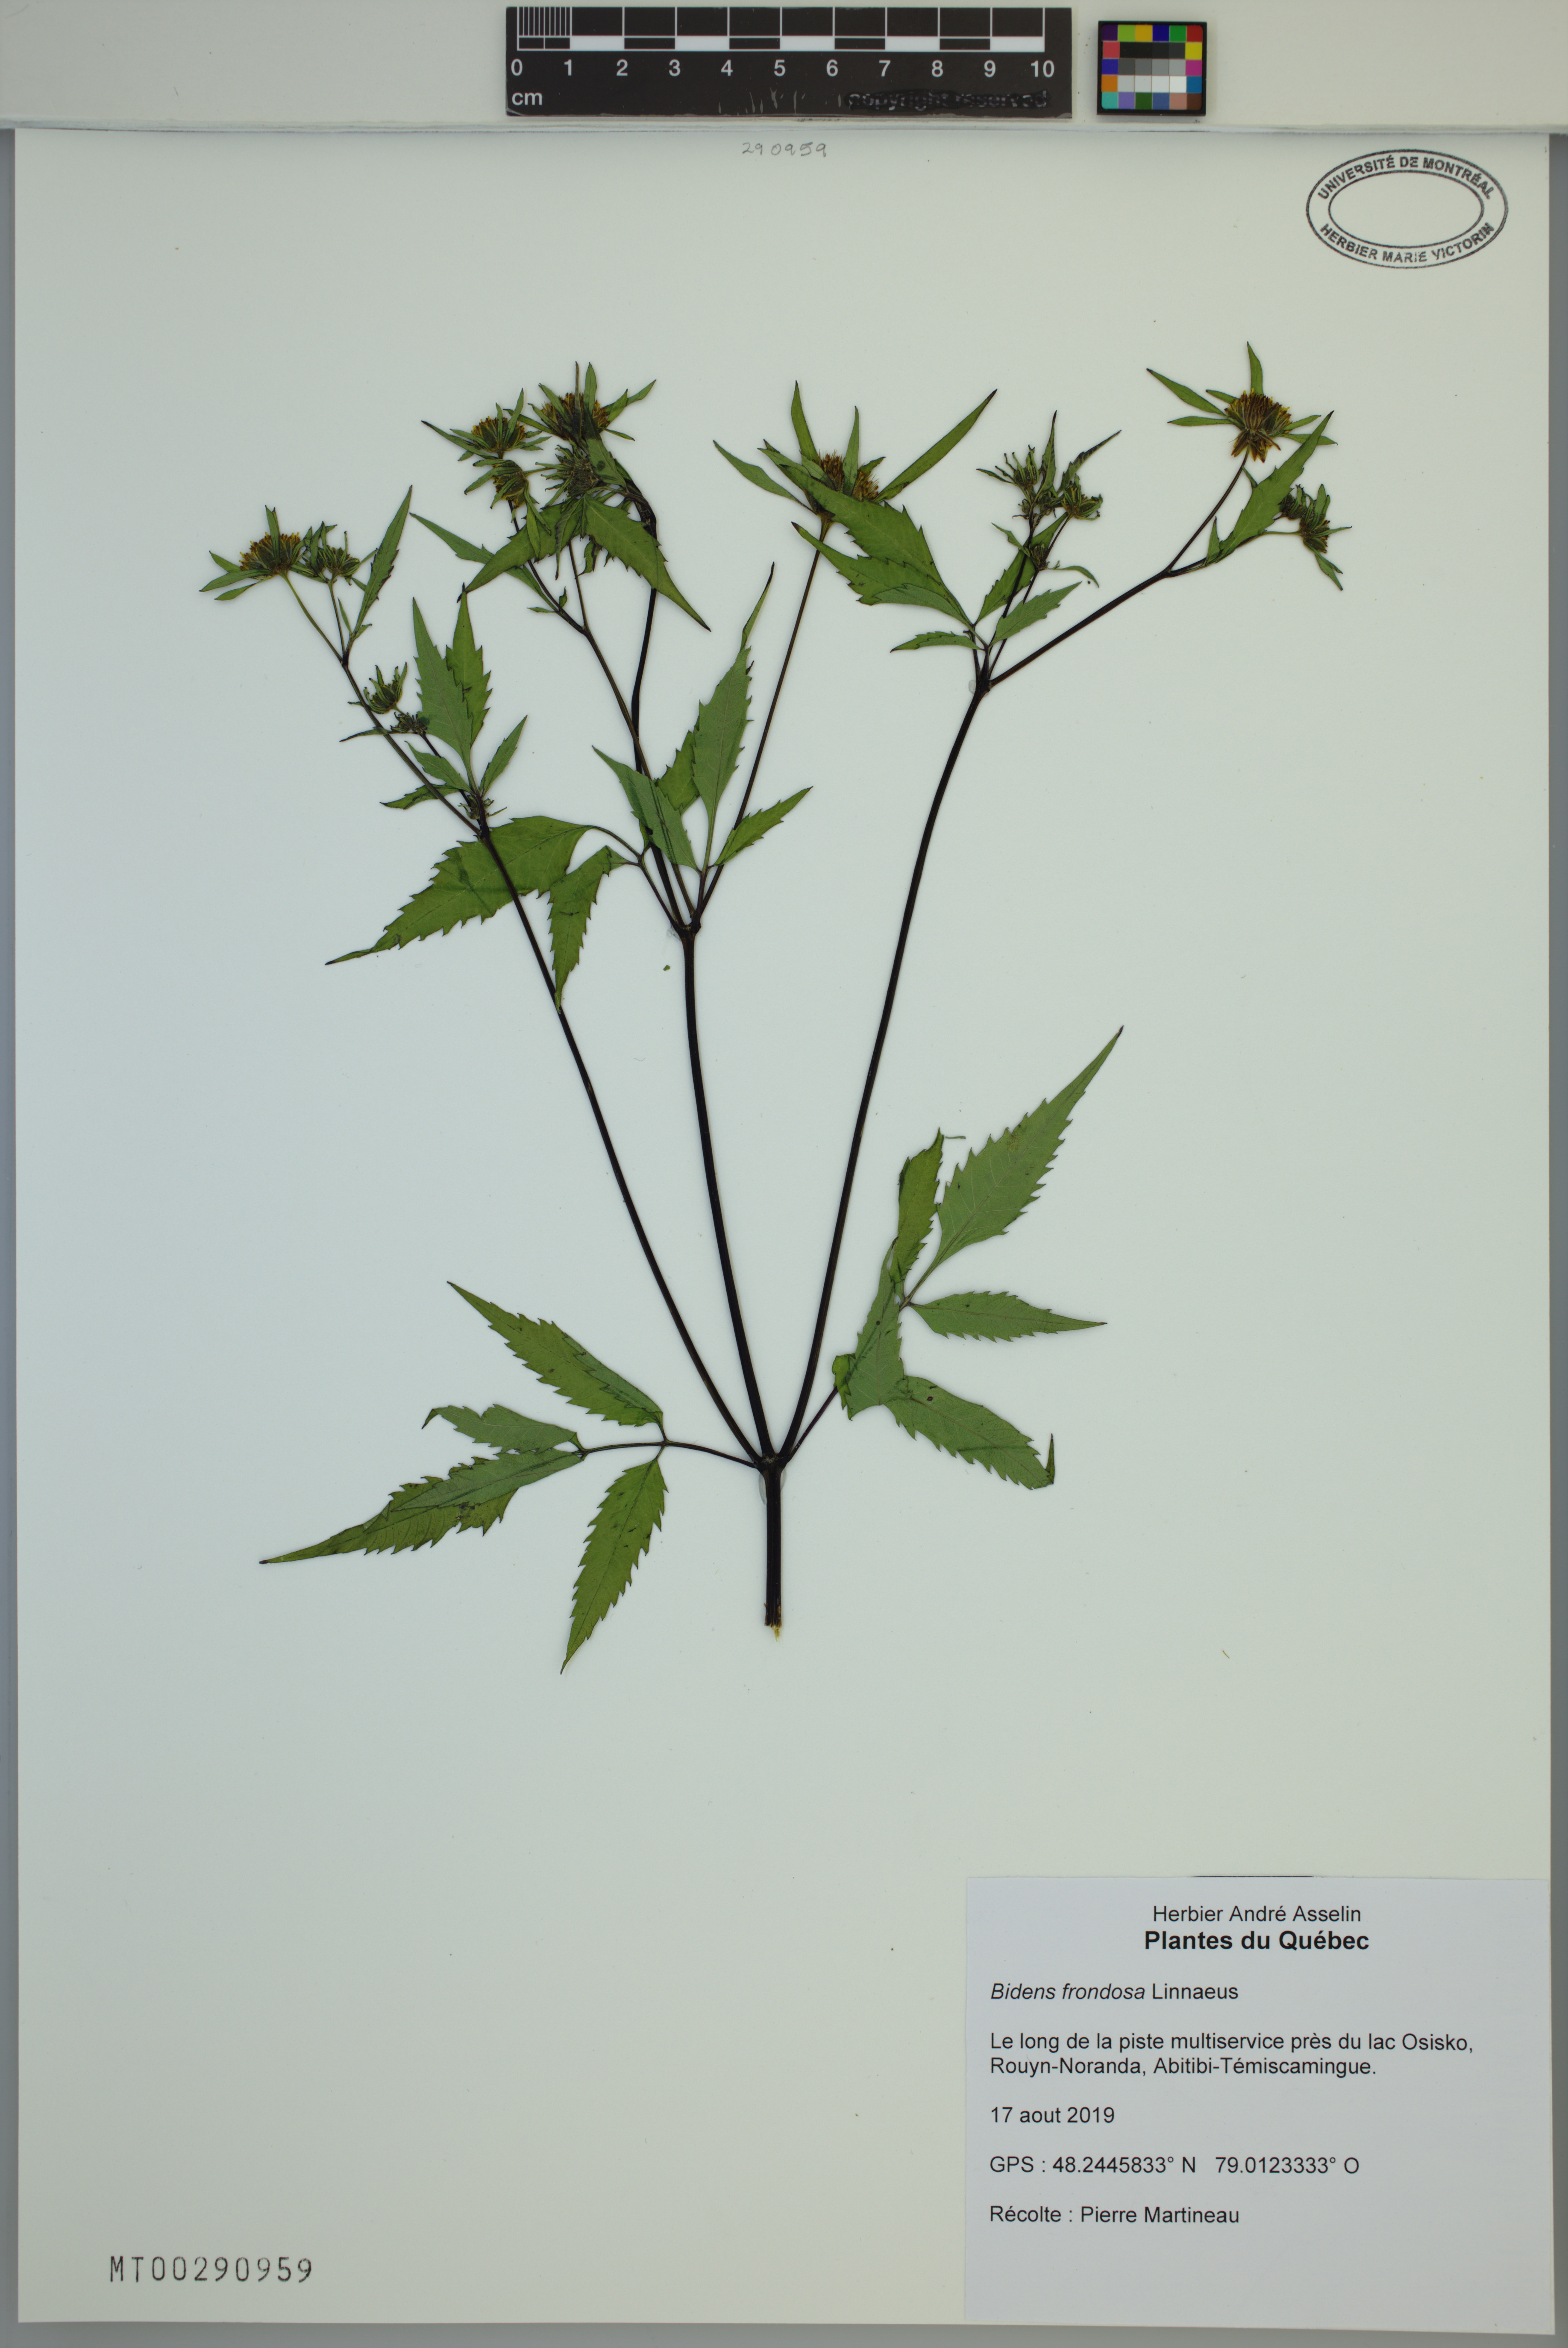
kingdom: Plantae
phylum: Tracheophyta
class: Magnoliopsida
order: Asterales
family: Asteraceae
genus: Bidens
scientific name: Bidens frondosa
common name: Beggarticks
